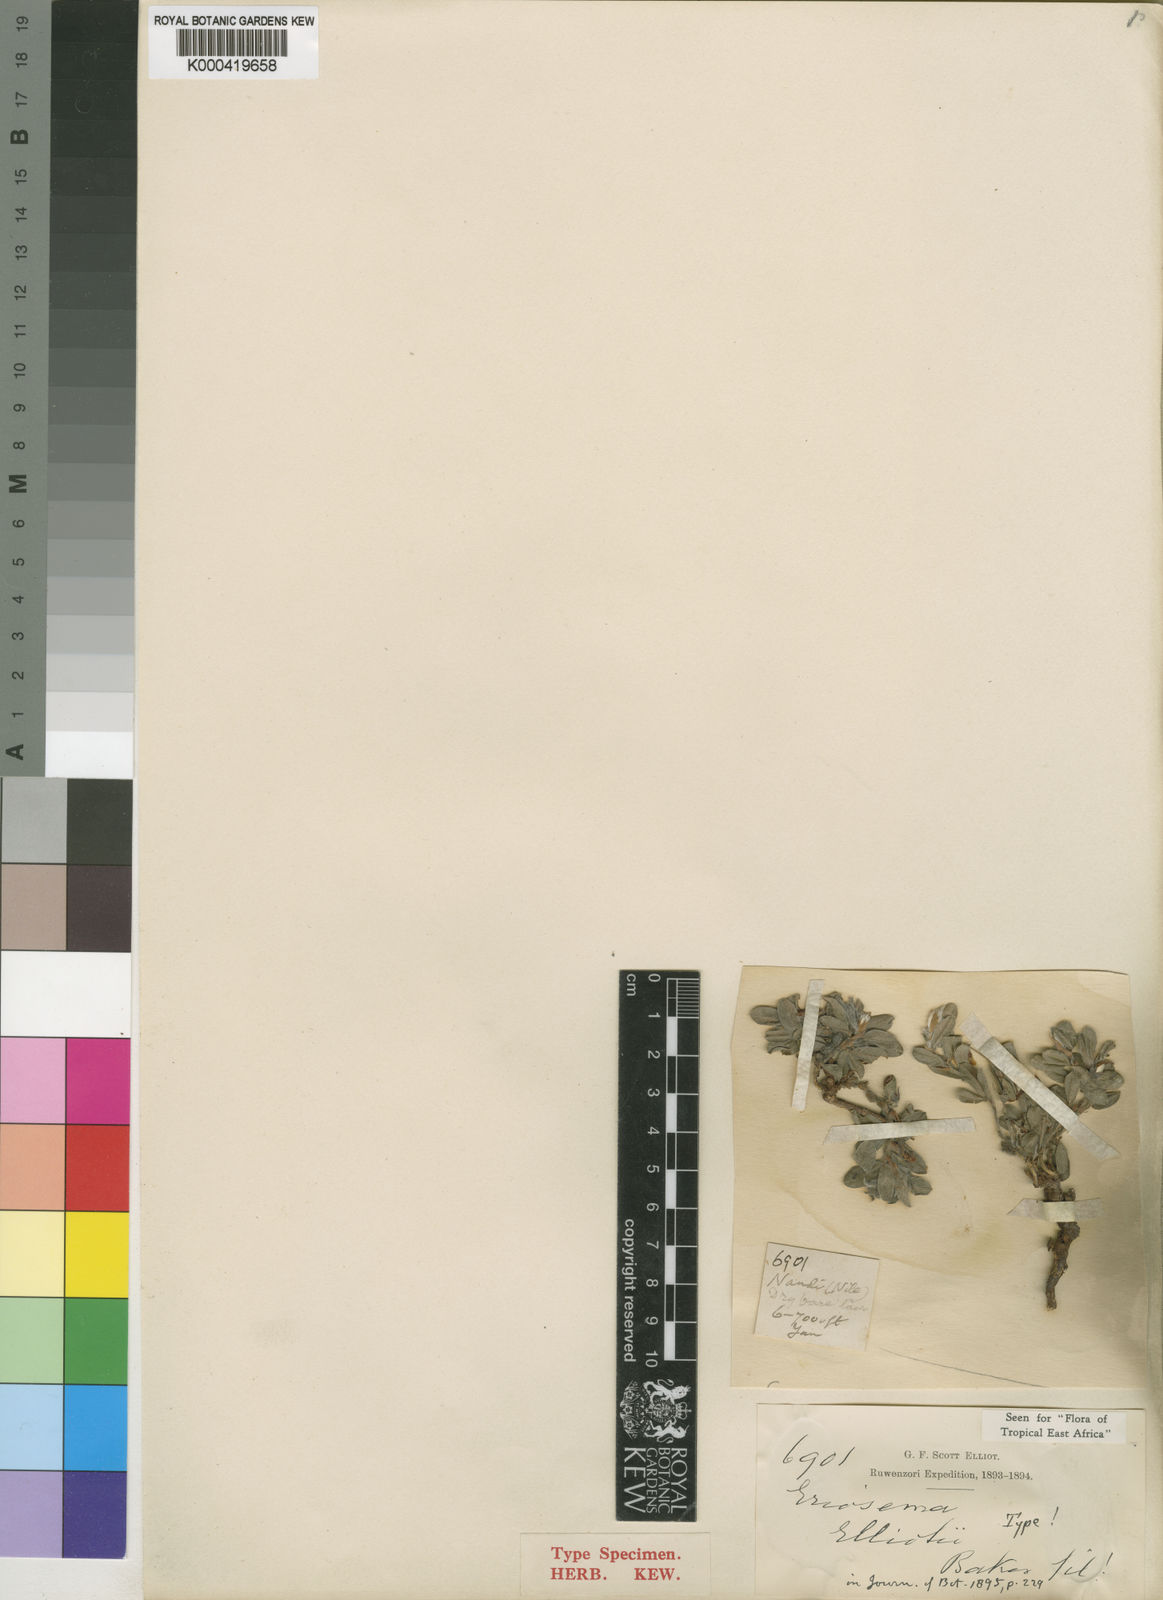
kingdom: Plantae
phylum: Tracheophyta
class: Magnoliopsida
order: Fabales
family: Fabaceae
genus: Eriosema
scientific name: Eriosema elliotii
